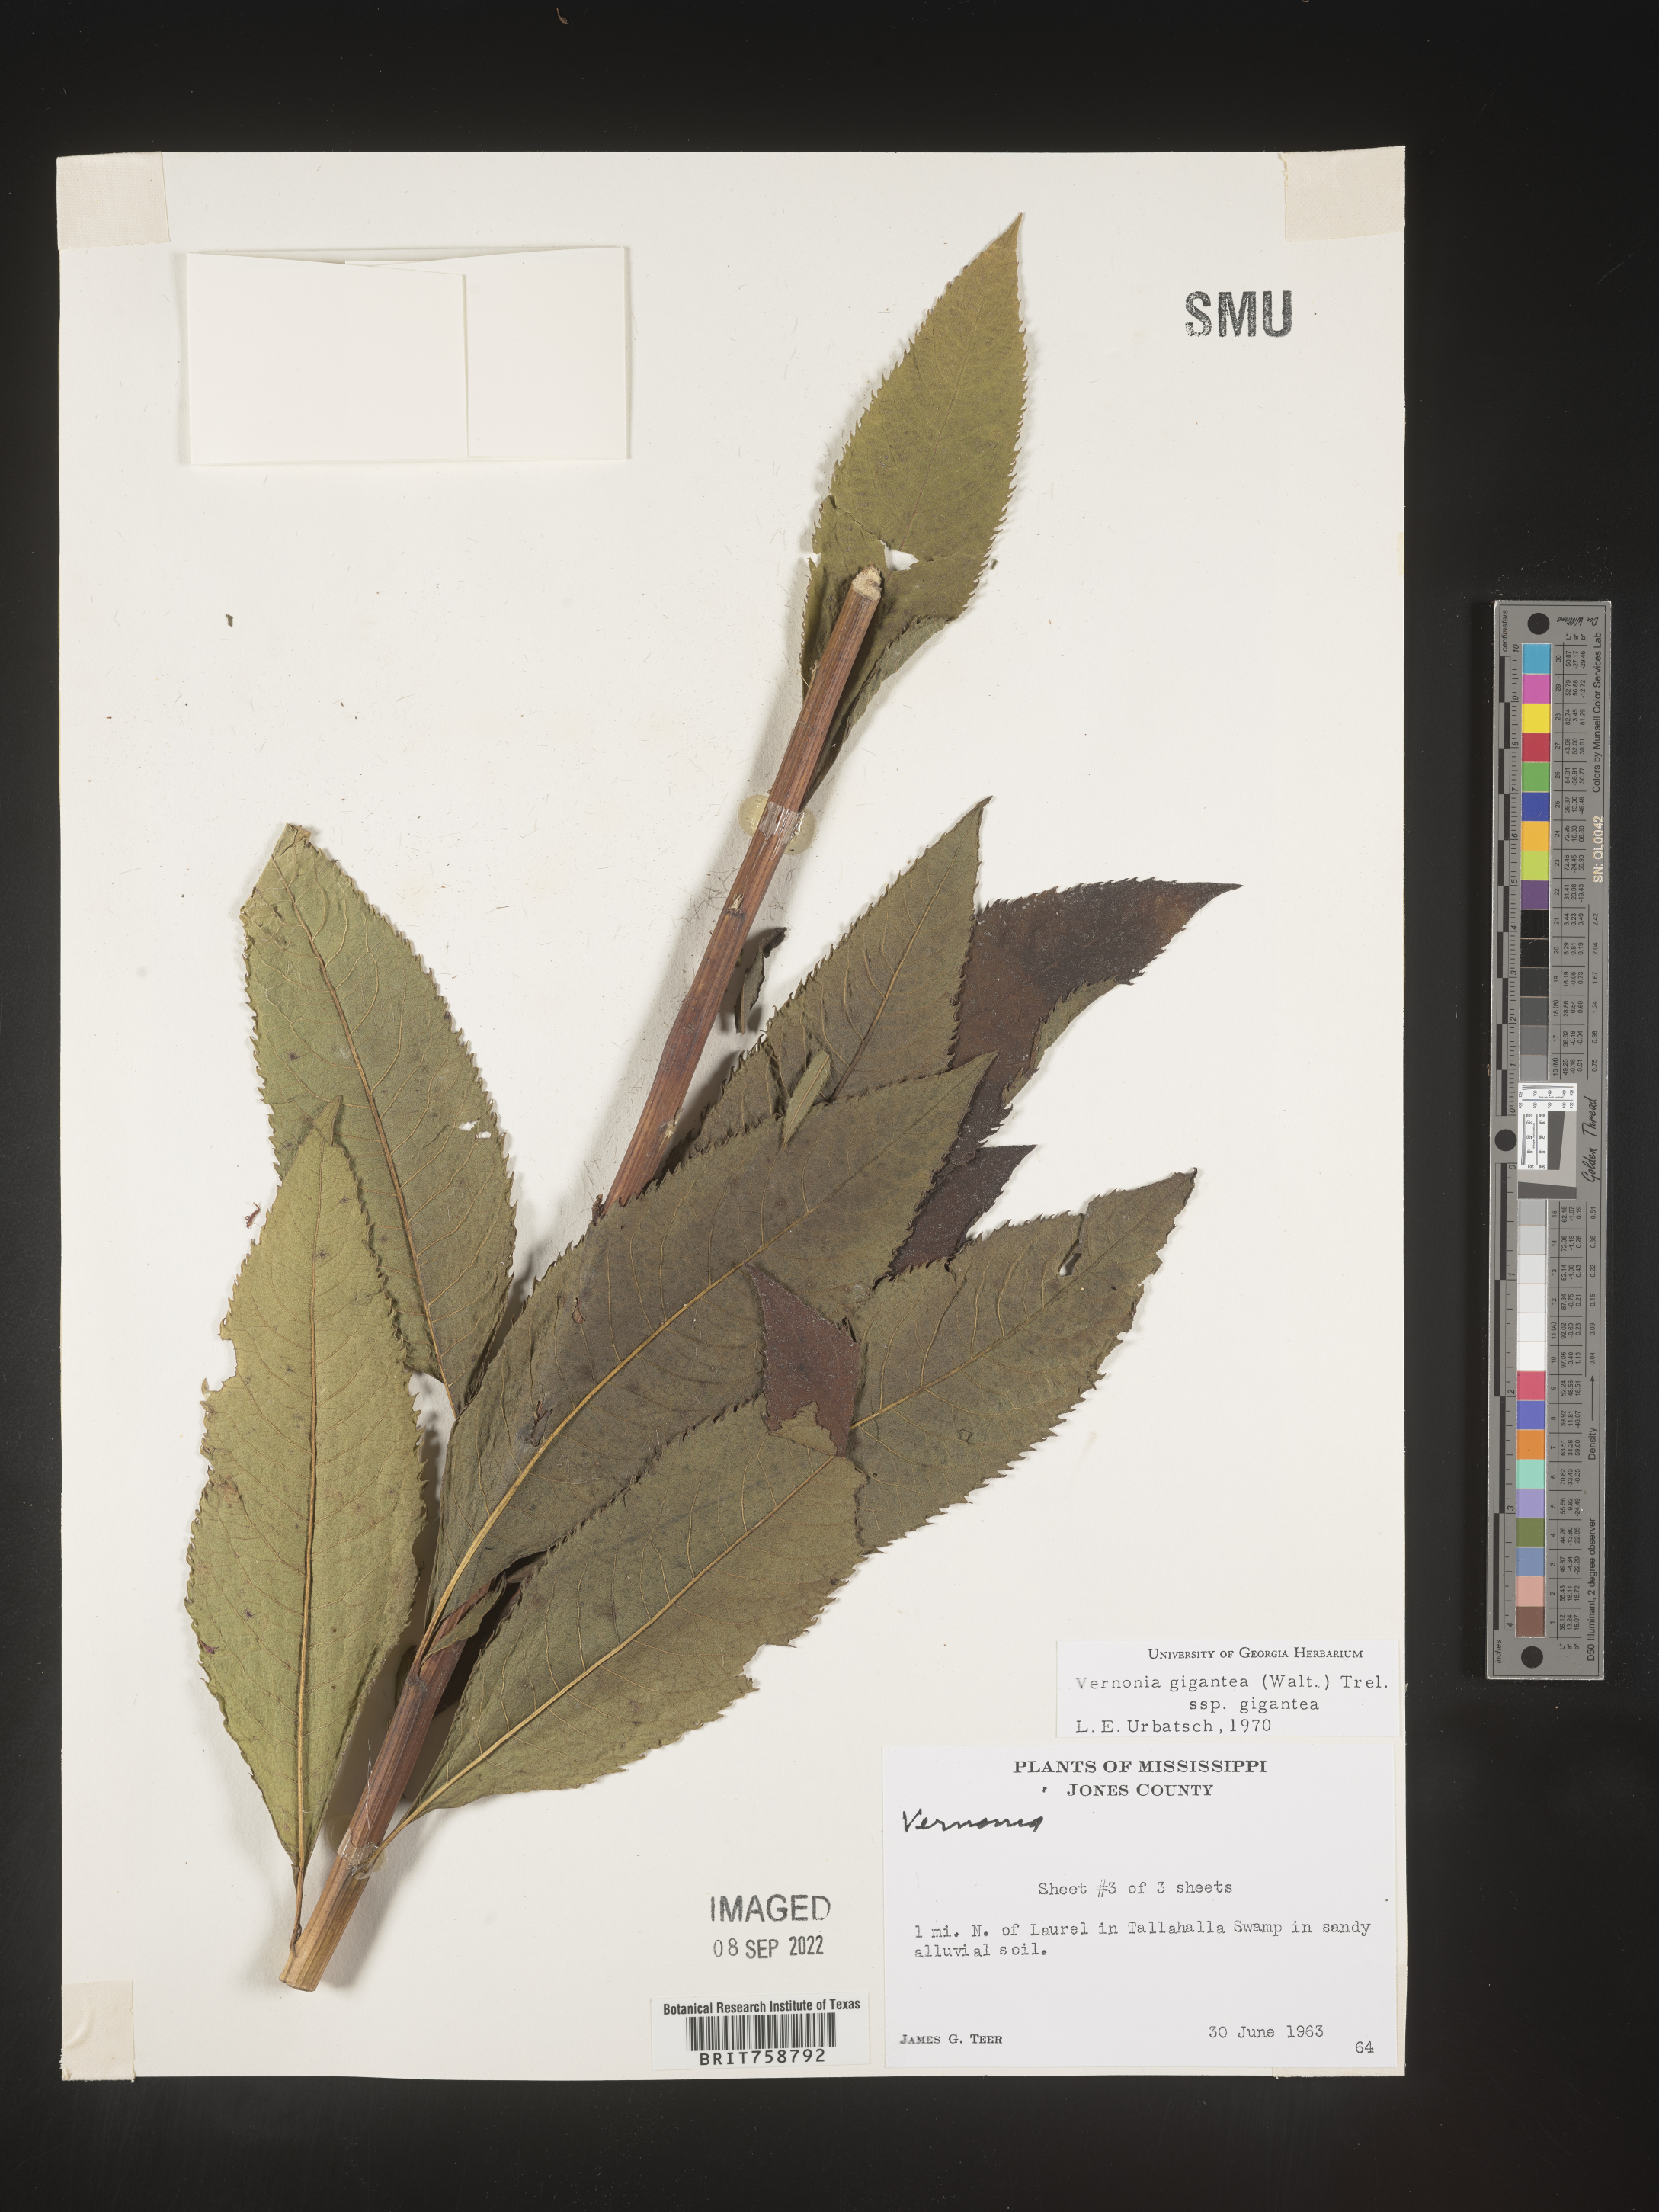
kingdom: Plantae
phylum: Tracheophyta
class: Magnoliopsida
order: Asterales
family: Asteraceae
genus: Vernonia
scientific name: Vernonia gigantea
